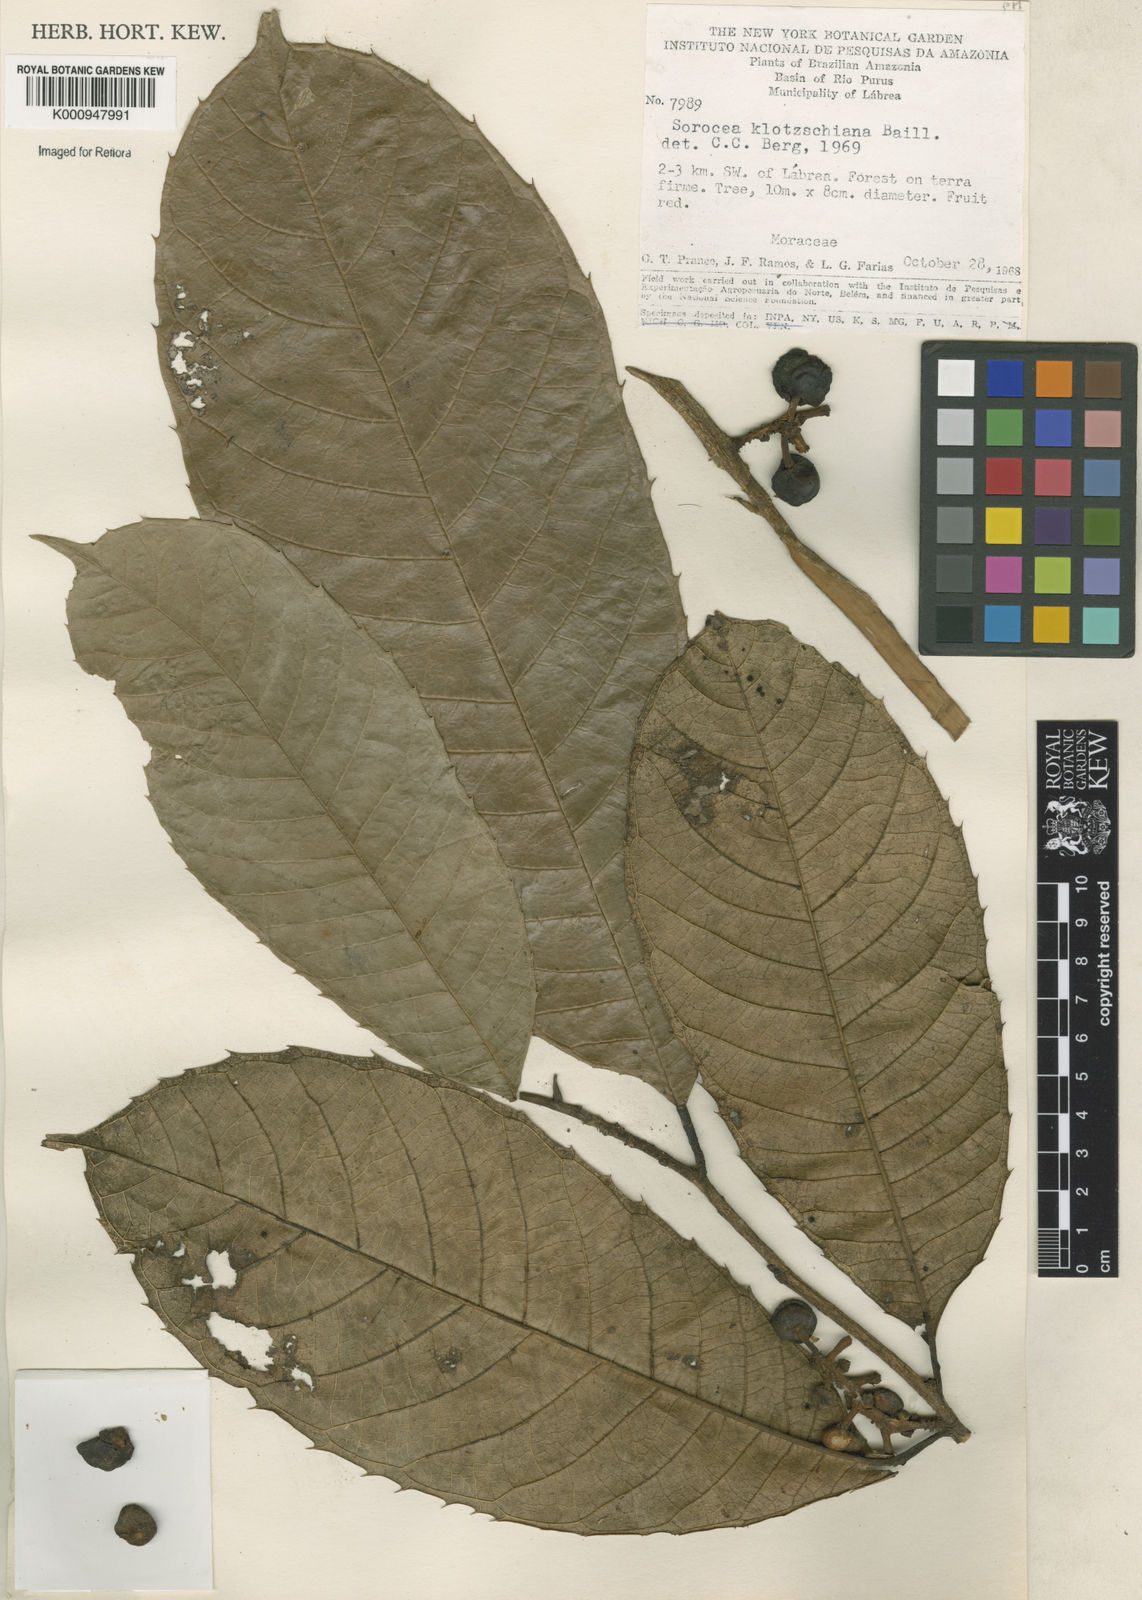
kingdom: Plantae
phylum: Tracheophyta
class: Magnoliopsida
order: Rosales
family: Moraceae
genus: Sorocea
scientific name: Sorocea guilleminiana
